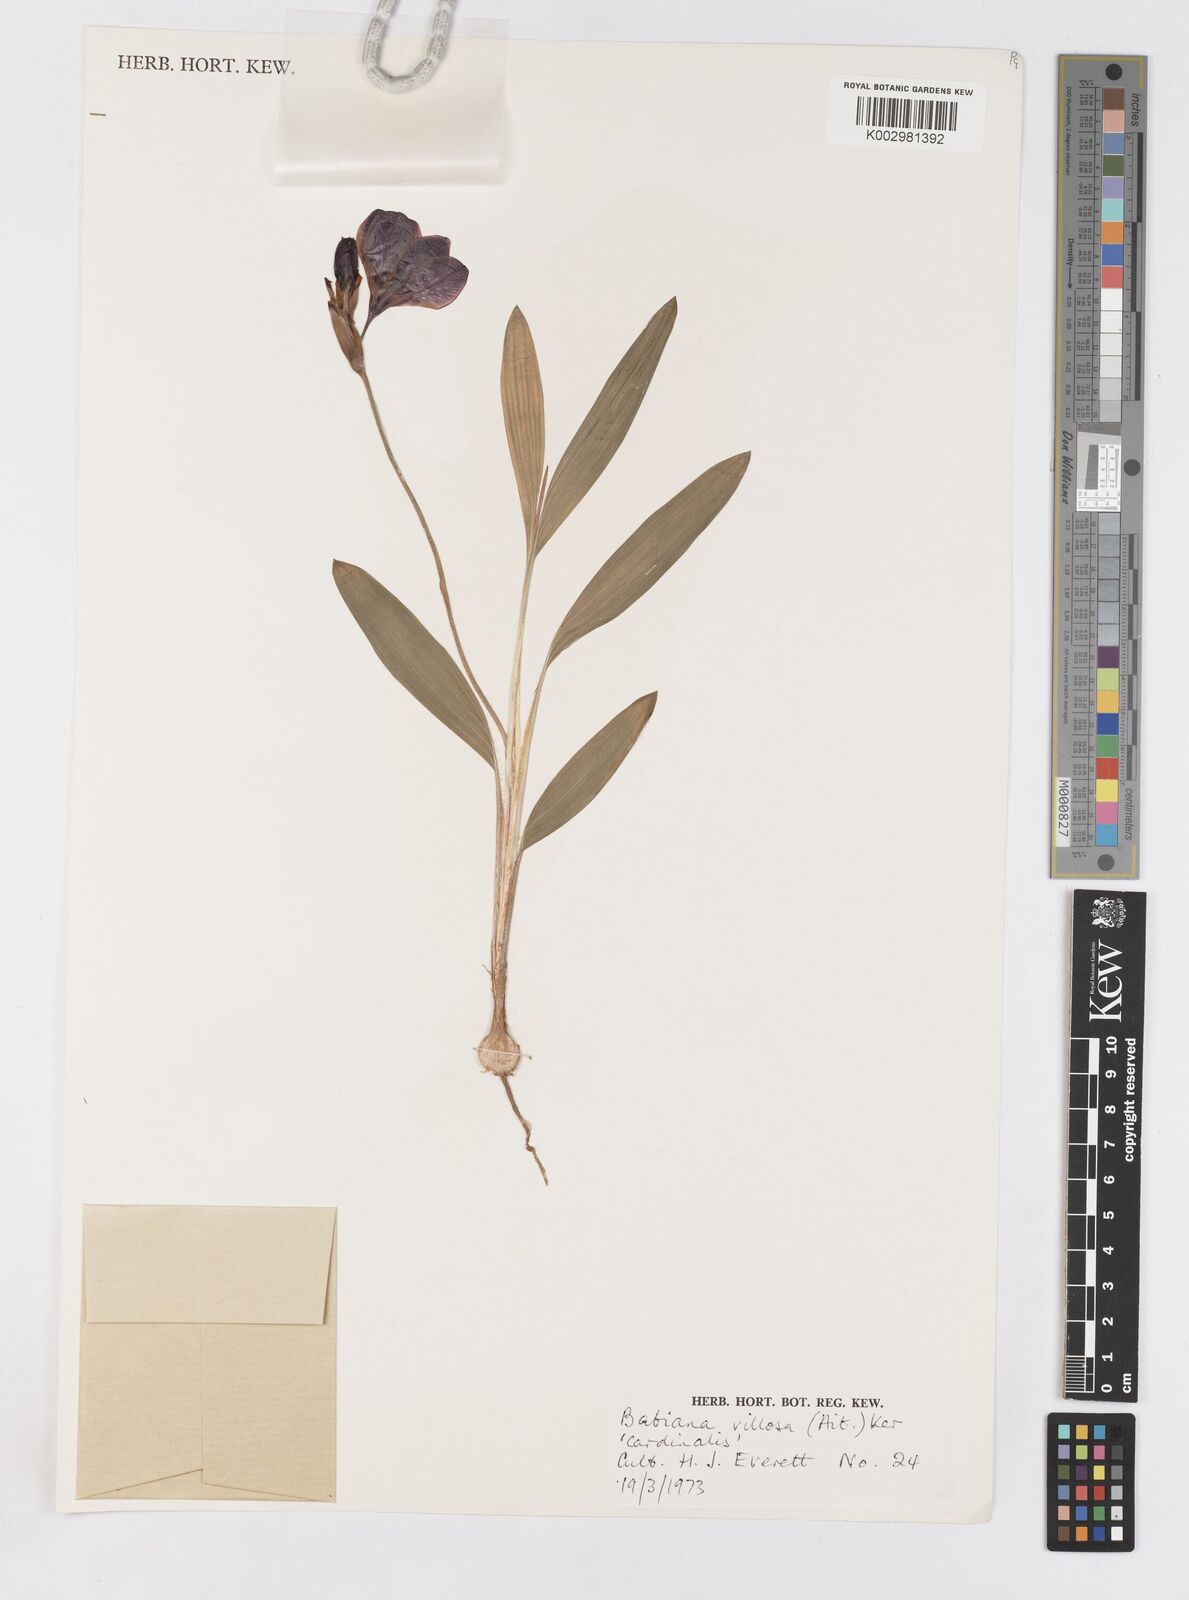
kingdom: Plantae
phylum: Tracheophyta
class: Liliopsida
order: Asparagales
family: Iridaceae
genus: Babiana
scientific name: Babiana villosa
